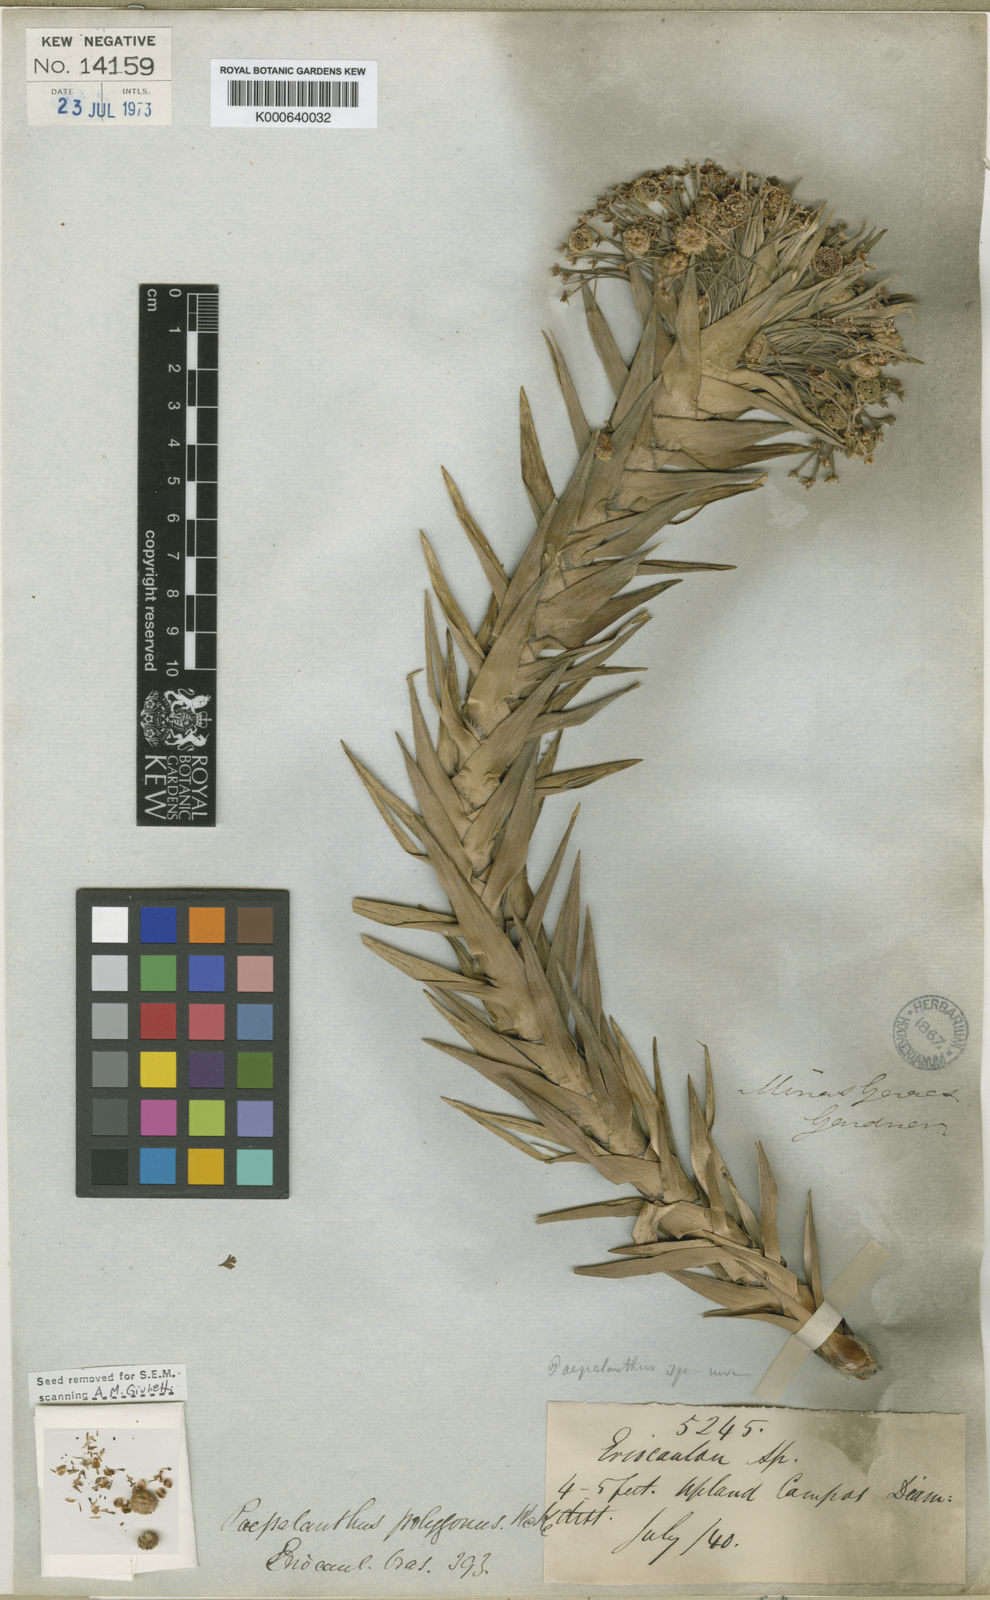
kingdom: Plantae
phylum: Tracheophyta
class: Liliopsida
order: Poales
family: Eriocaulaceae
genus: Paepalanthus
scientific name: Paepalanthus
